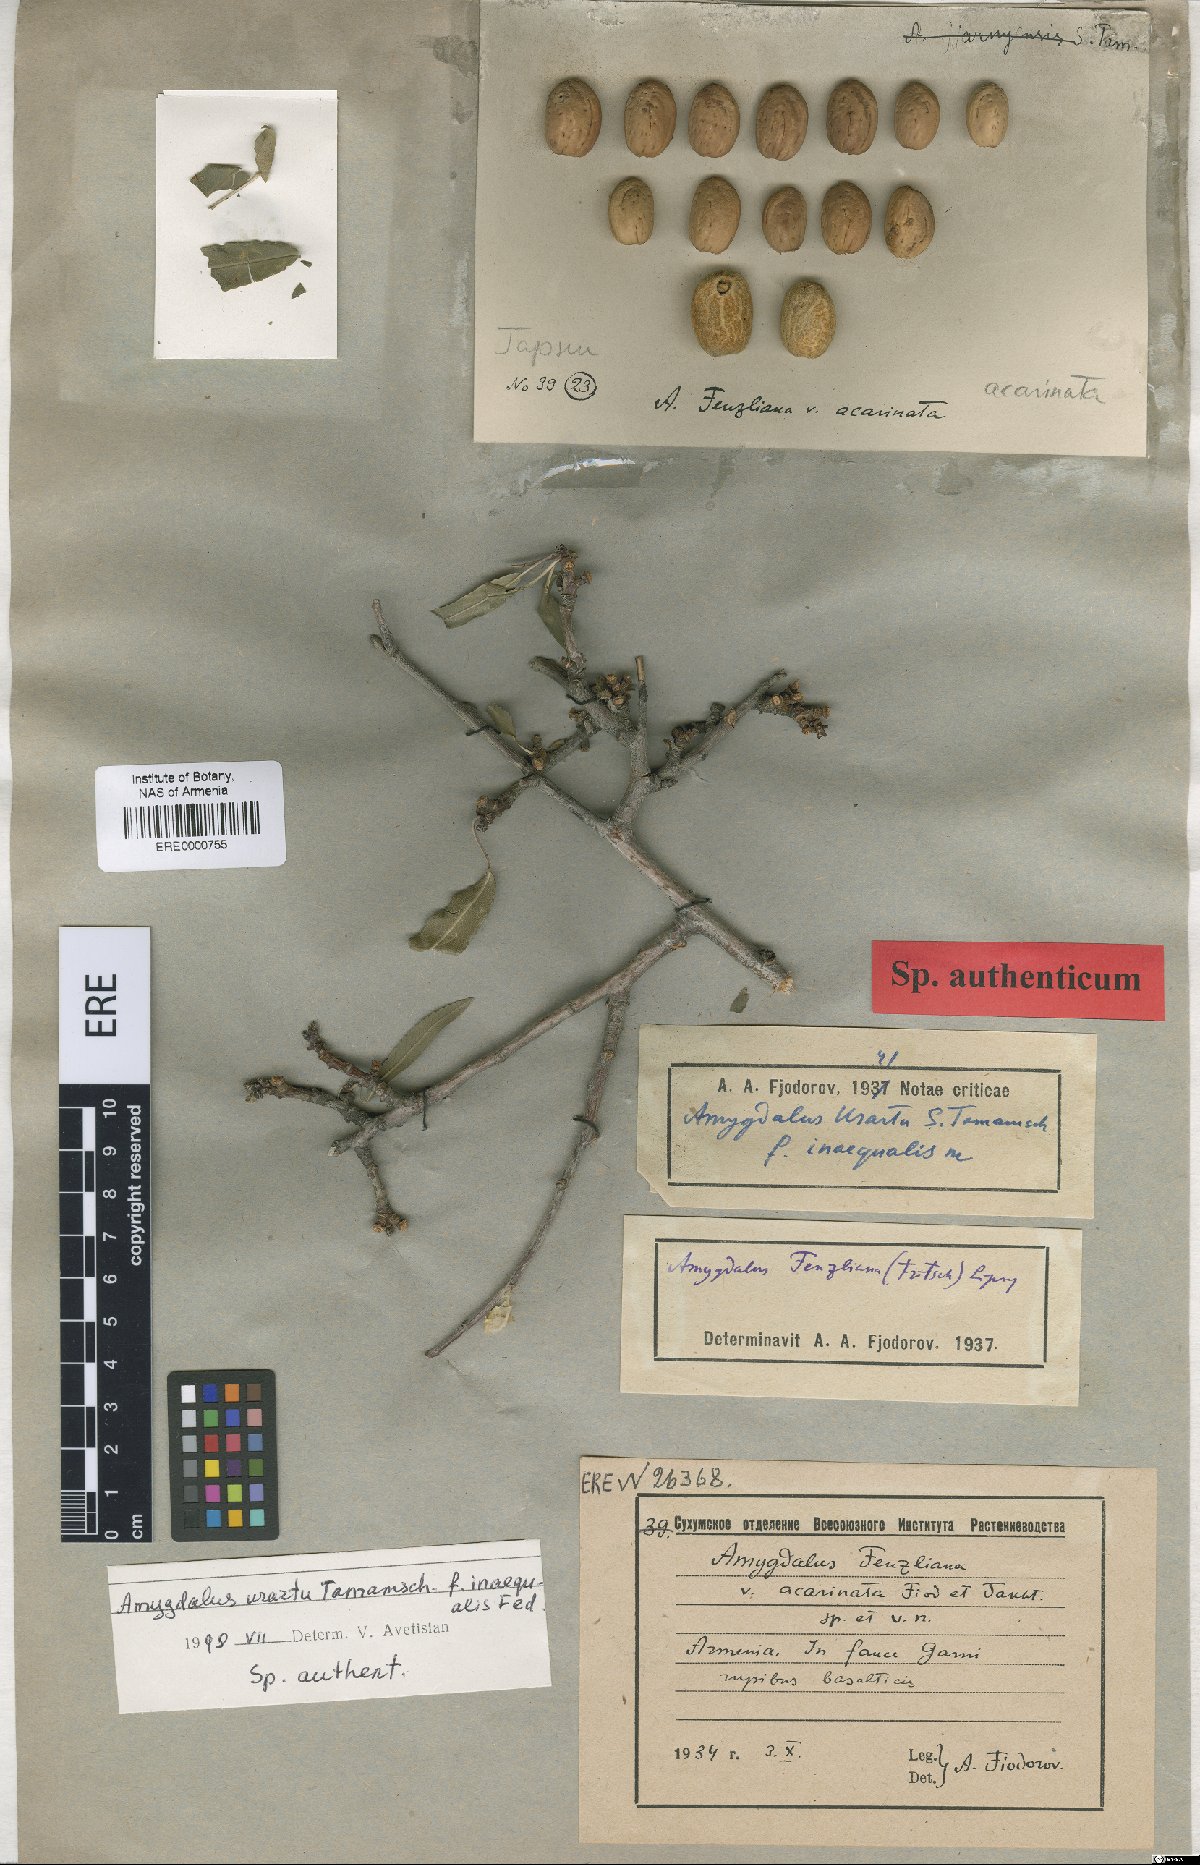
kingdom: Plantae
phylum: Tracheophyta
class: Magnoliopsida
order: Rosales
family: Rosaceae
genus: Prunus
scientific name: Prunus urartu
